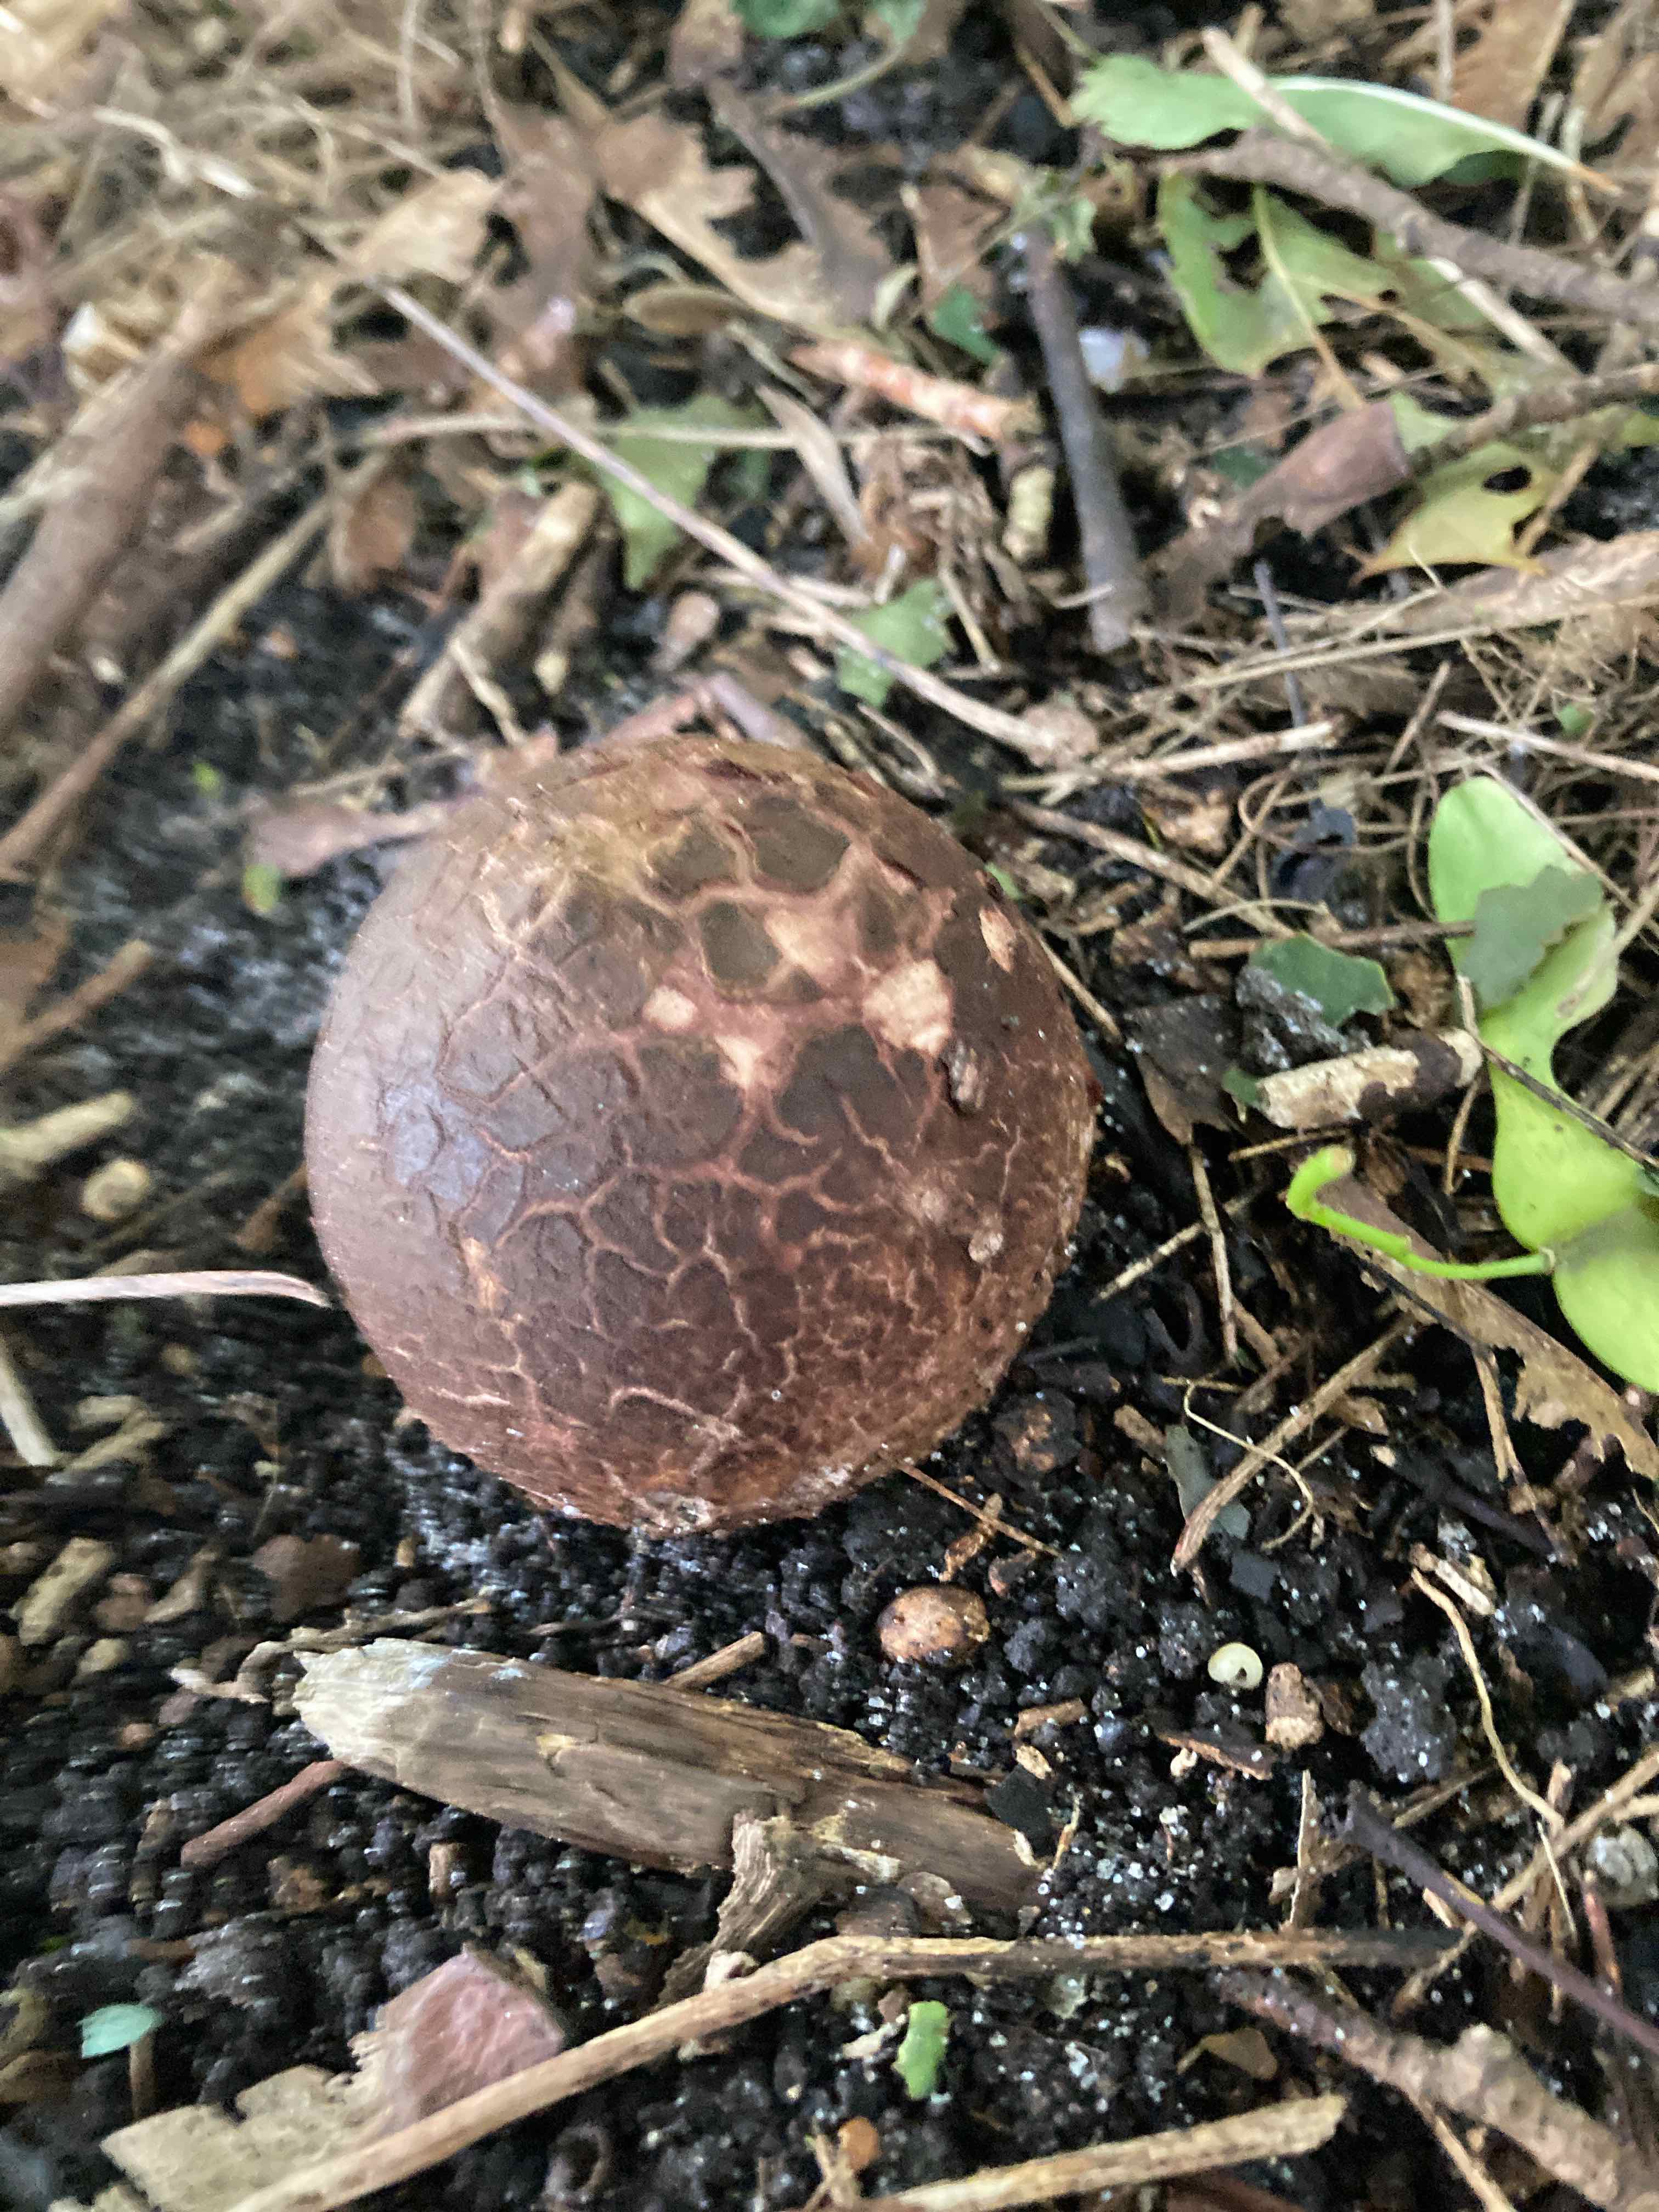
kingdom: Fungi
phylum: Basidiomycota
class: Agaricomycetes
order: Geastrales
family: Geastraceae
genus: Geastrum
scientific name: Geastrum melanocephalum
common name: håret stjernebold
